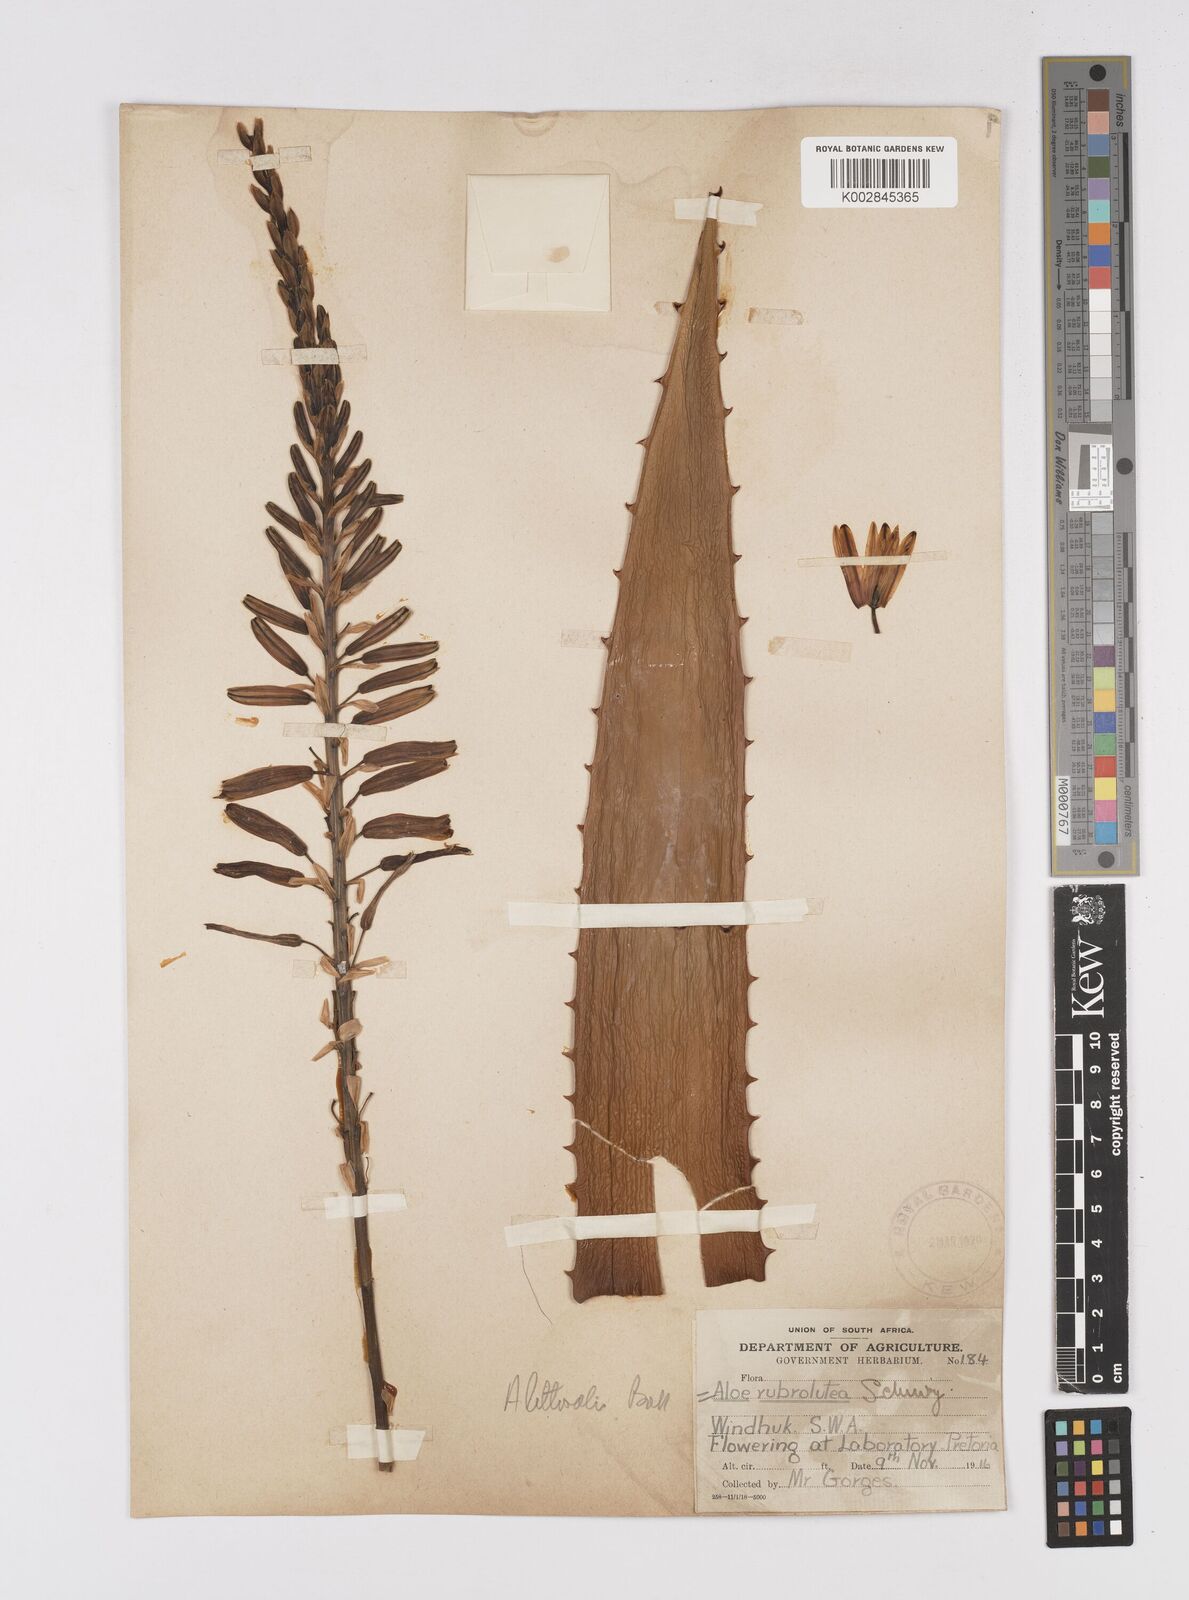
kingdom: Plantae
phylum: Tracheophyta
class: Liliopsida
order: Asparagales
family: Asphodelaceae
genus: Aloe
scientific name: Aloe littoralis
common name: Luanda tree aloe
